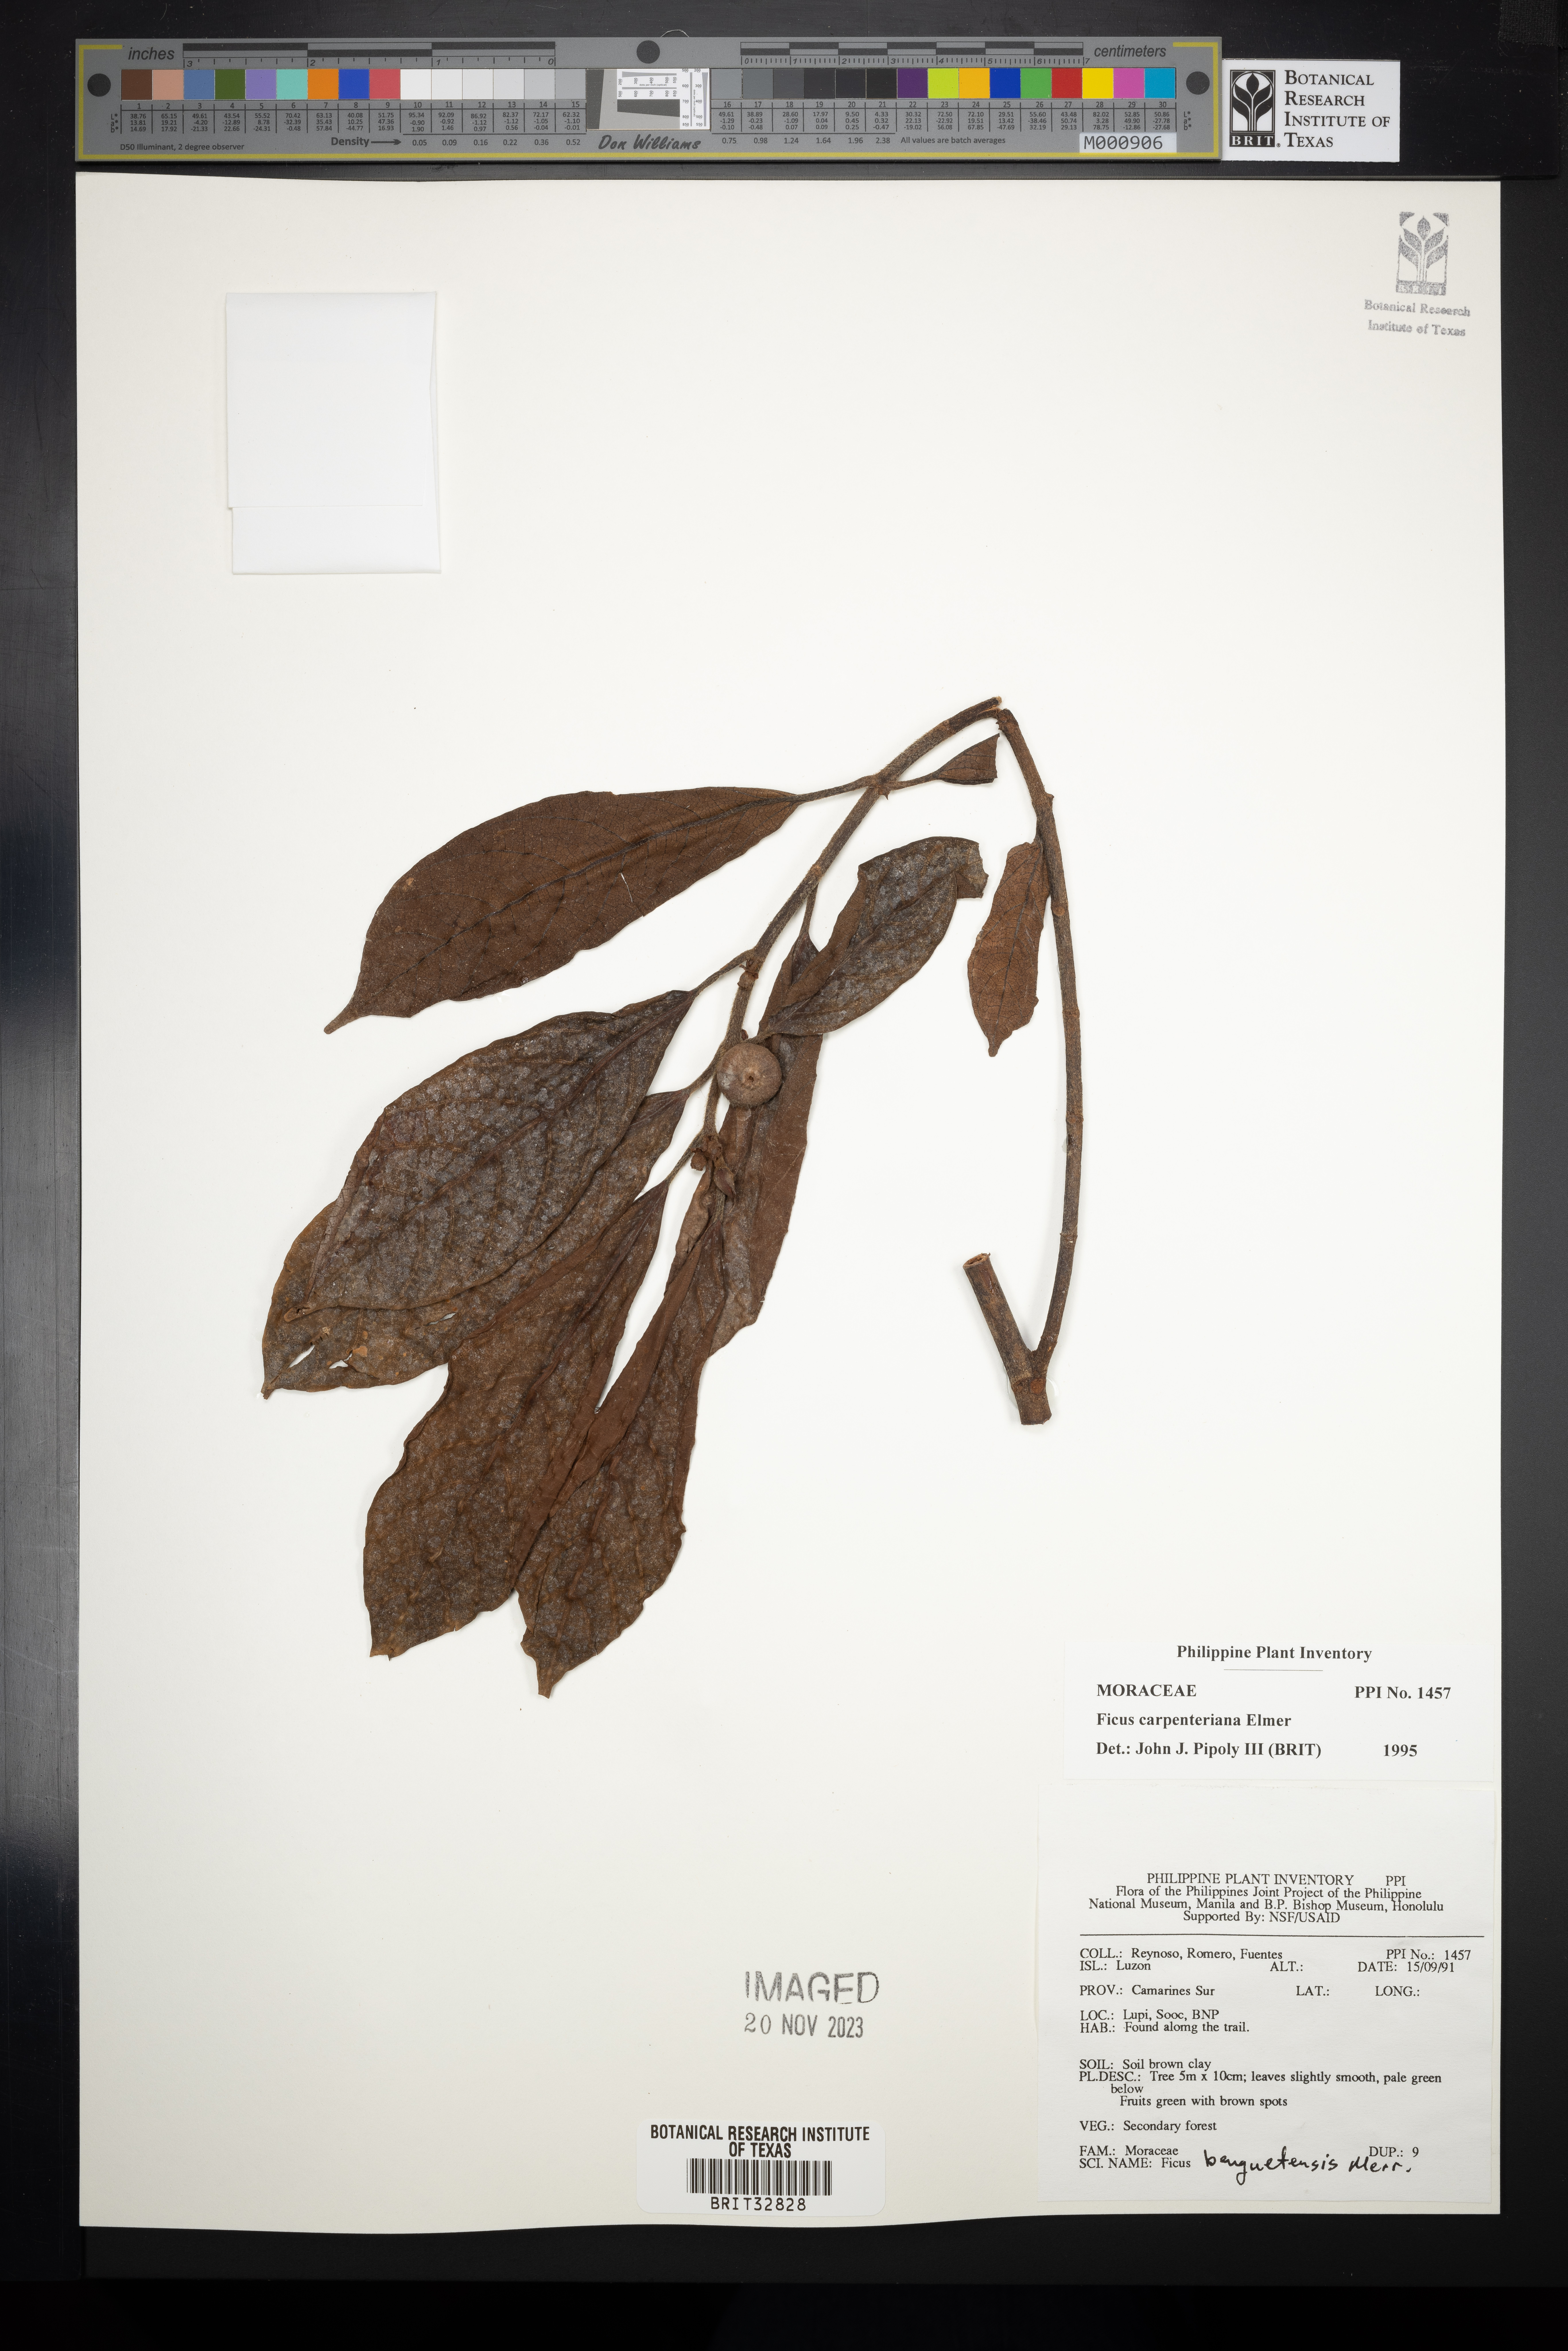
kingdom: Plantae
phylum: Tracheophyta
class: Magnoliopsida
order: Rosales
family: Moraceae
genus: Ficus
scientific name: Ficus carpenteriana
